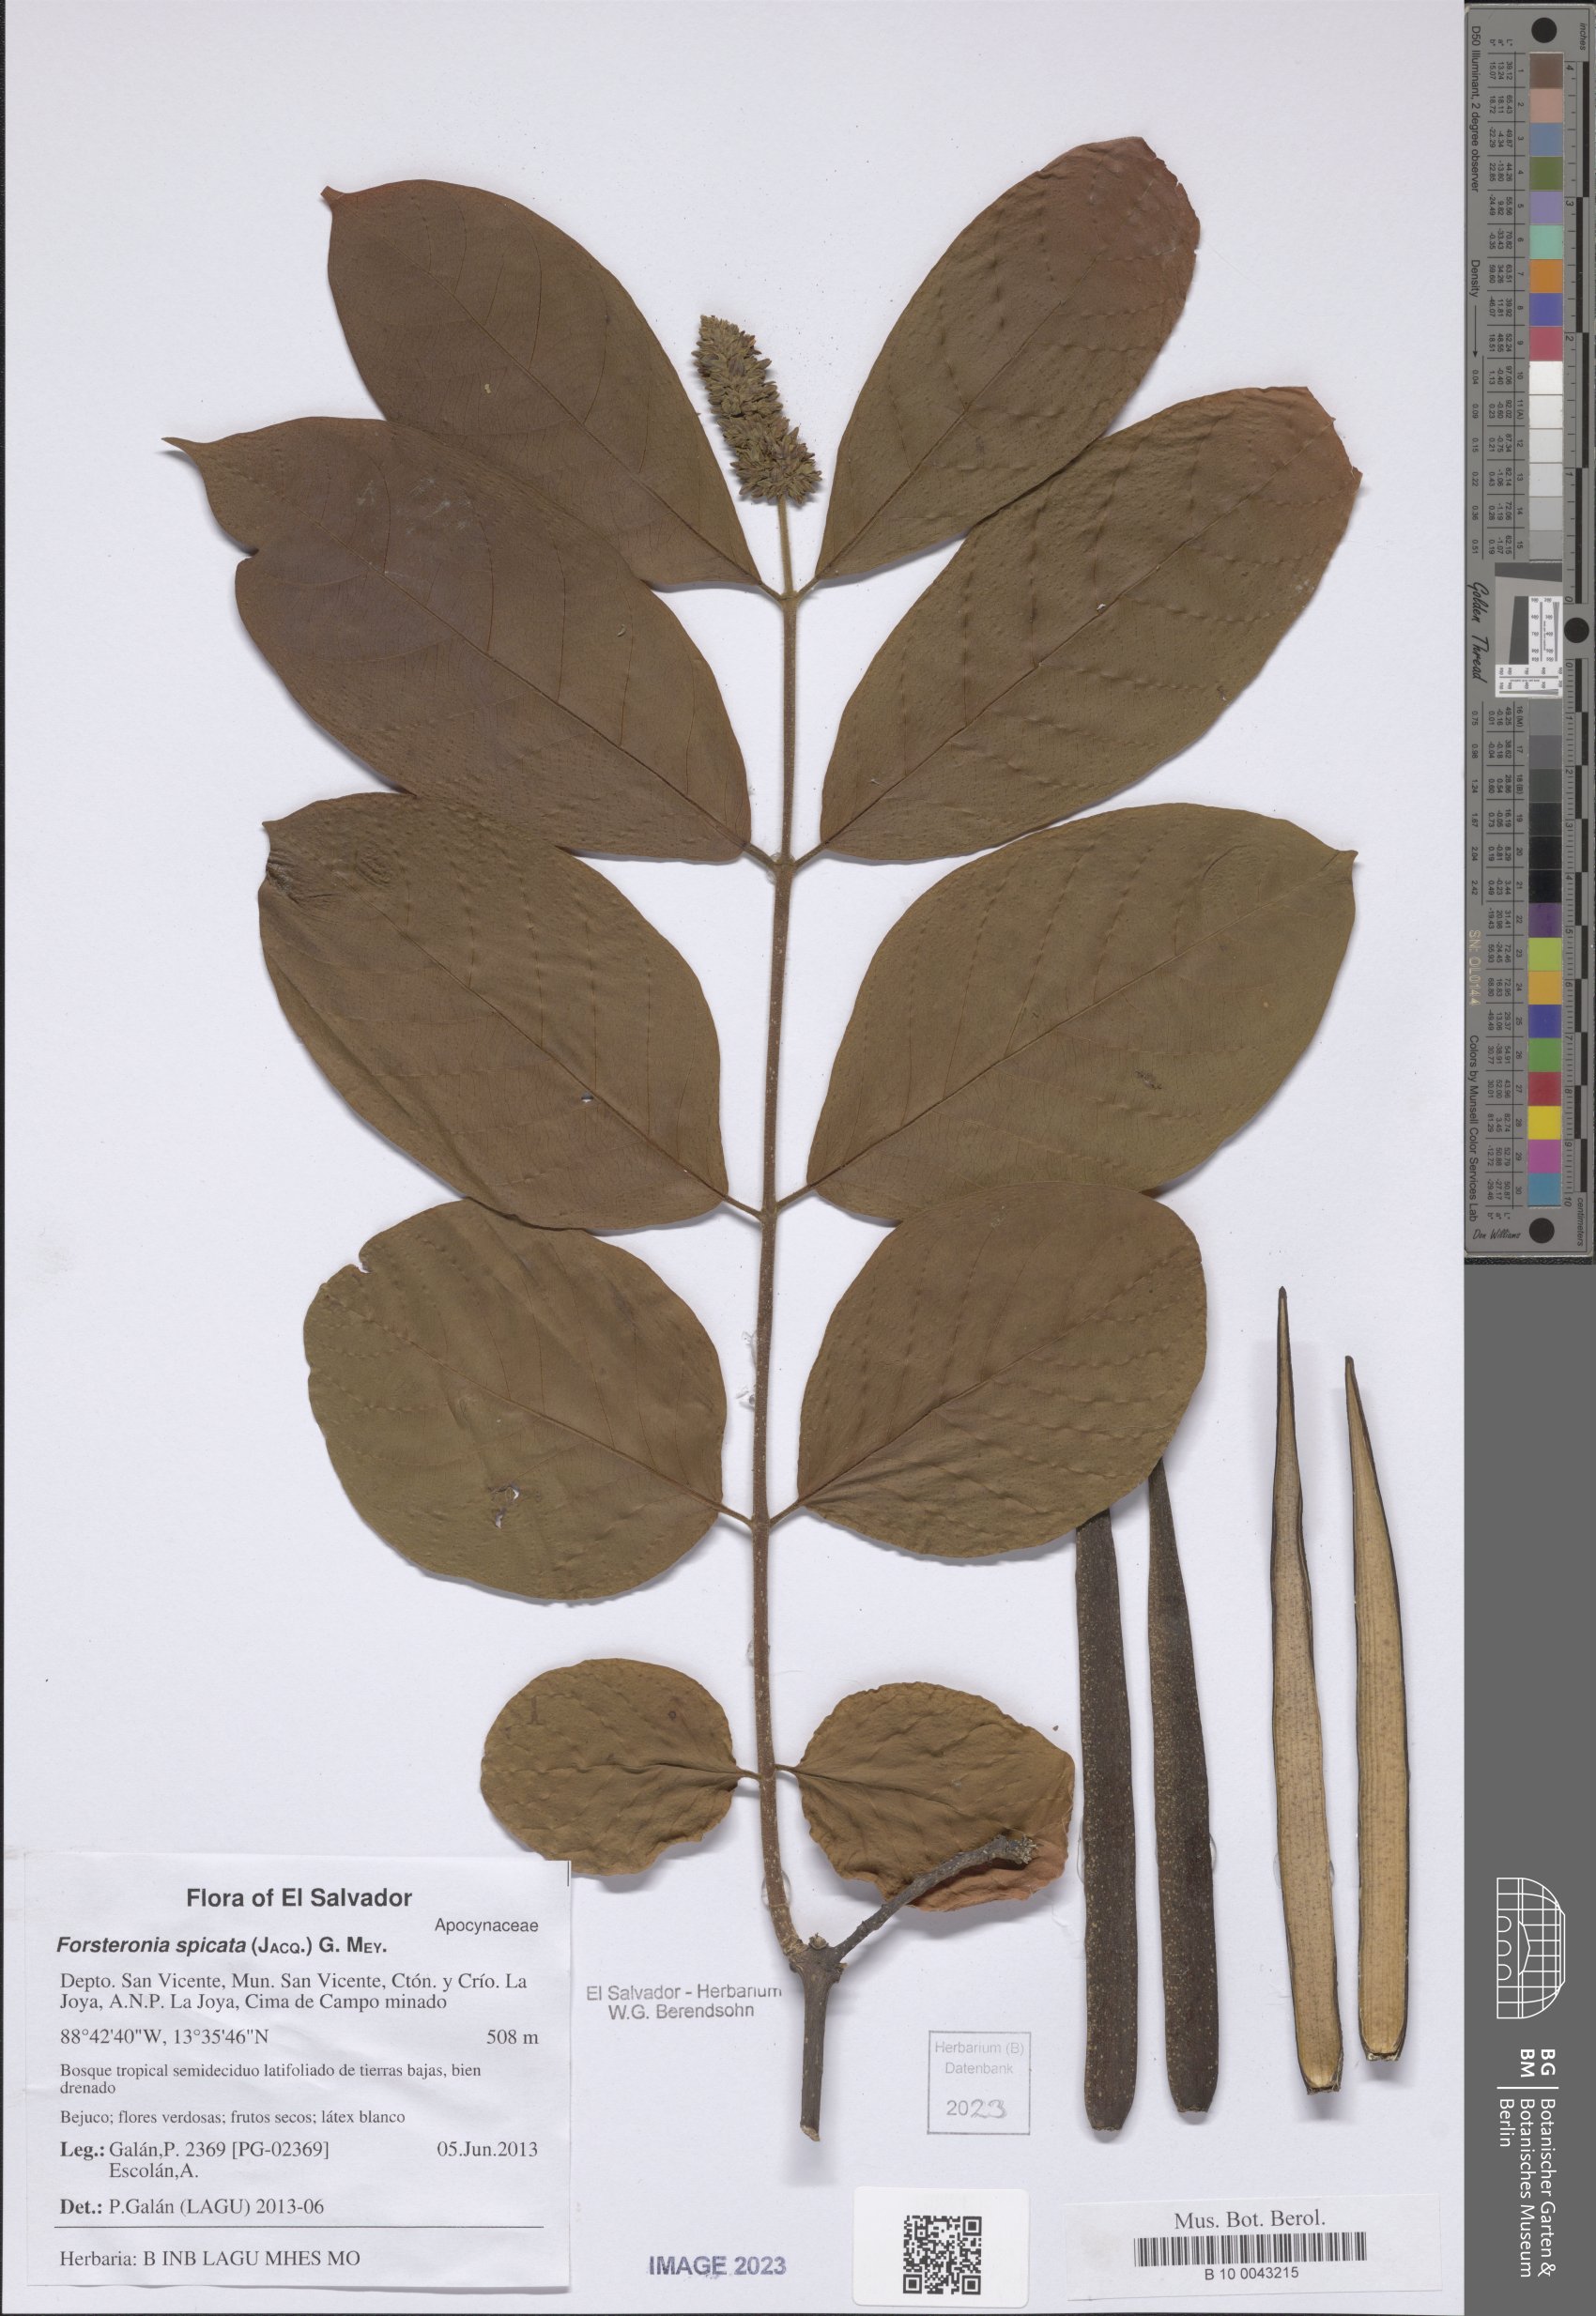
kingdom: Plantae
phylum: Tracheophyta
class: Magnoliopsida
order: Gentianales
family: Apocynaceae
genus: Forsteronia
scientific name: Forsteronia spicata
